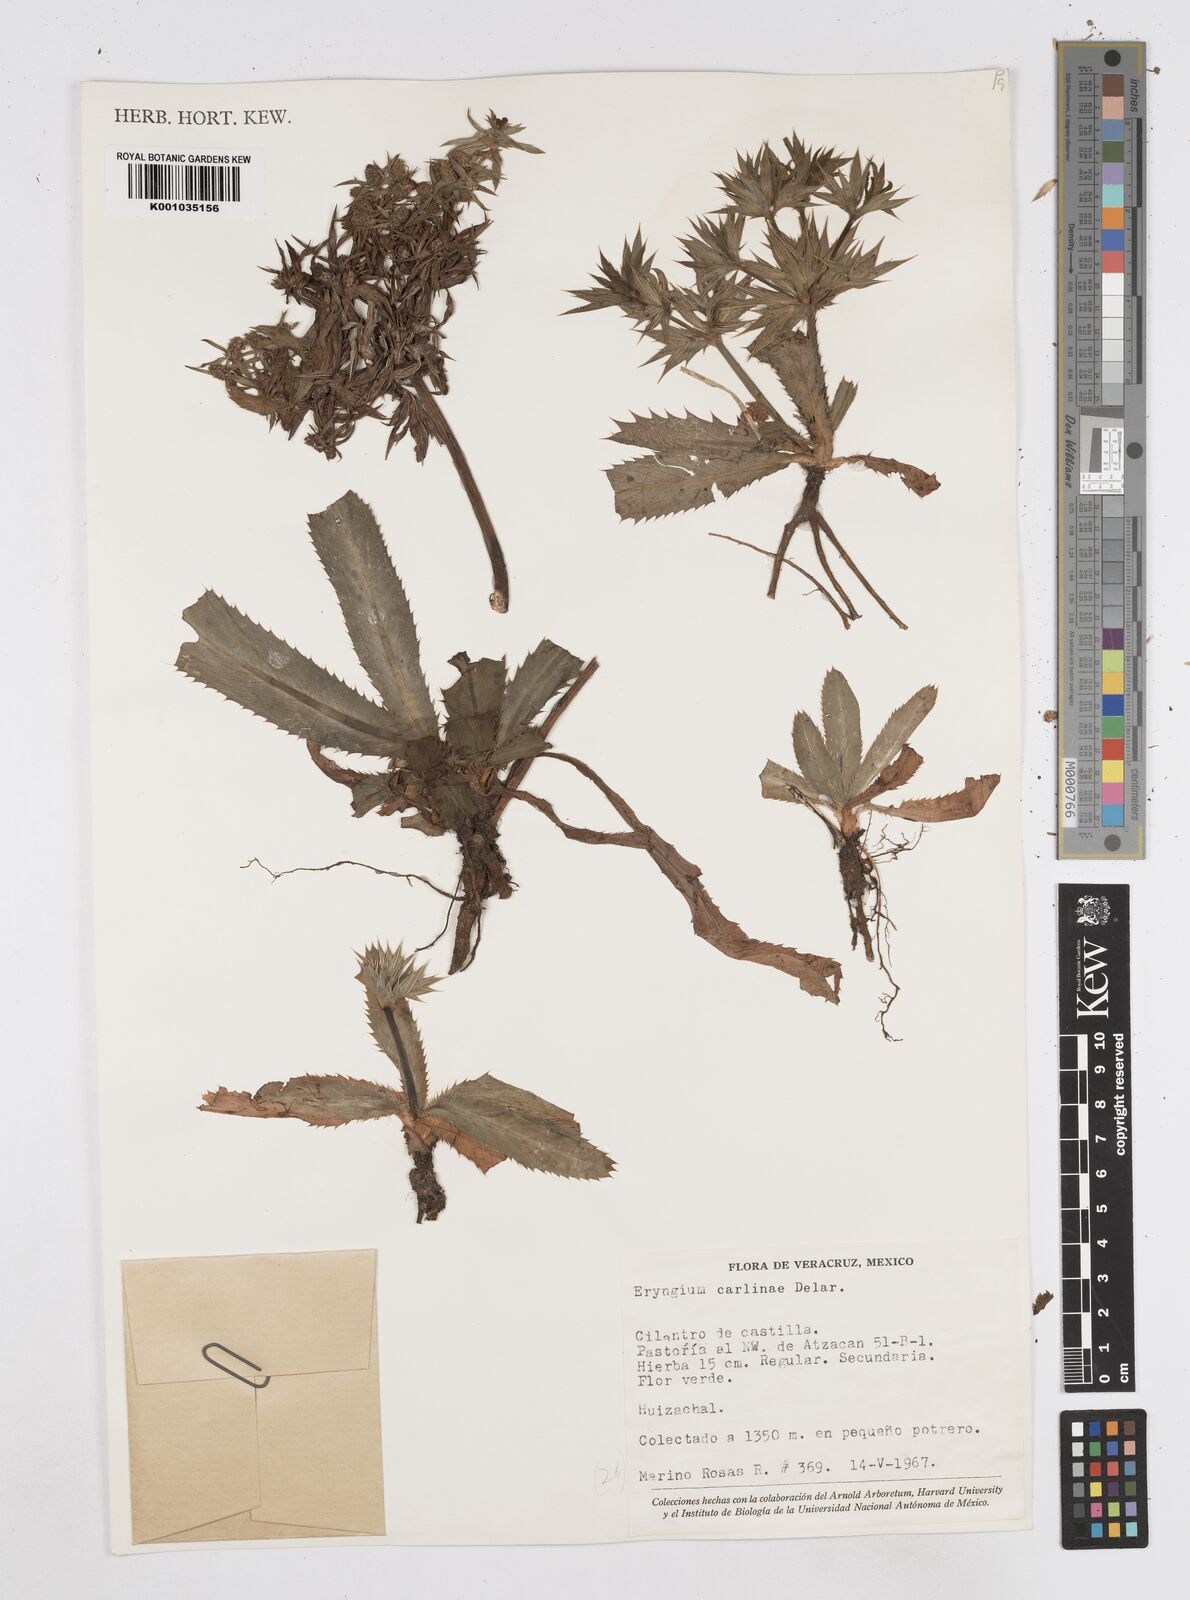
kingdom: Plantae
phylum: Tracheophyta
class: Magnoliopsida
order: Apiales
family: Apiaceae
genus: Eryngium
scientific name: Eryngium carlinae
